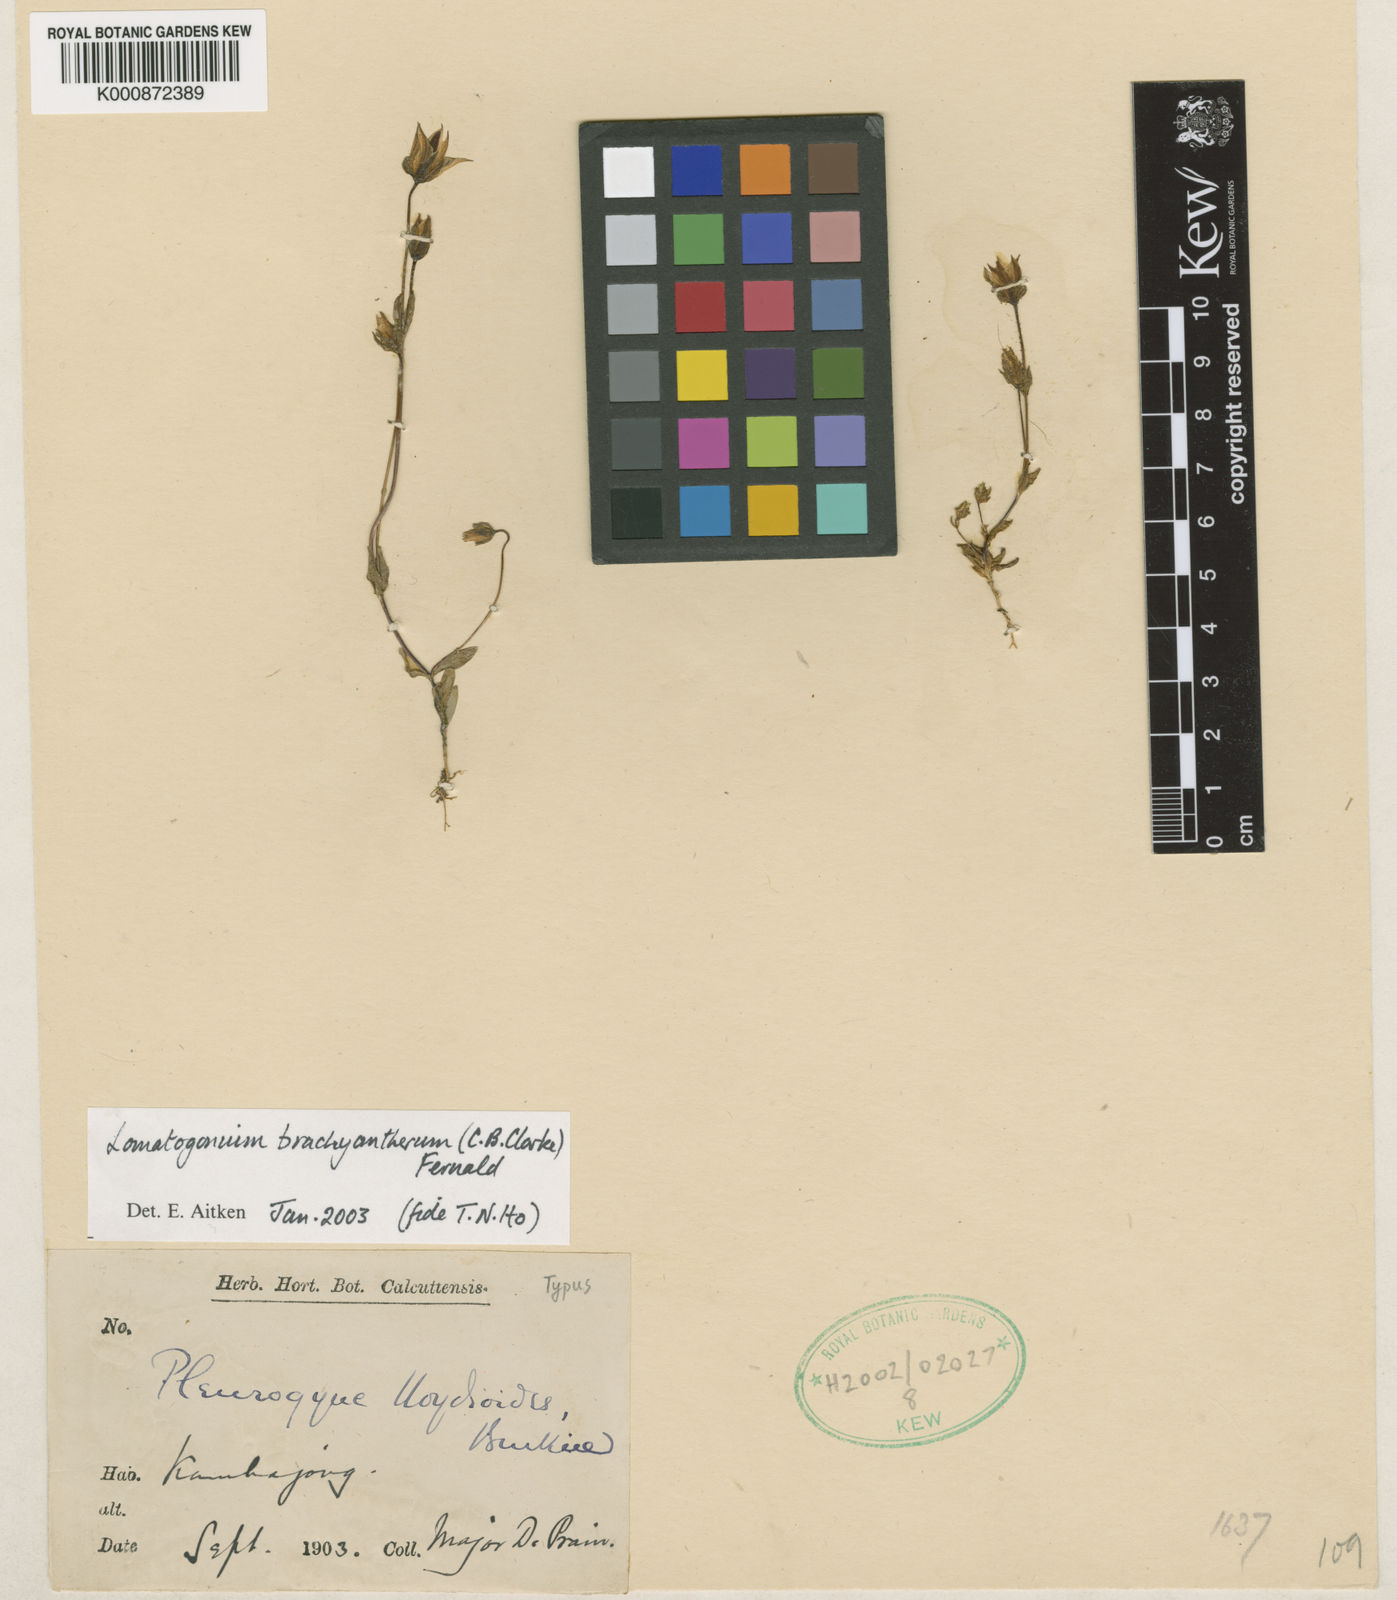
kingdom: Plantae
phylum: Tracheophyta
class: Magnoliopsida
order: Gentianales
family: Gentianaceae
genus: Lomatogonium
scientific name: Lomatogonium himalayense
